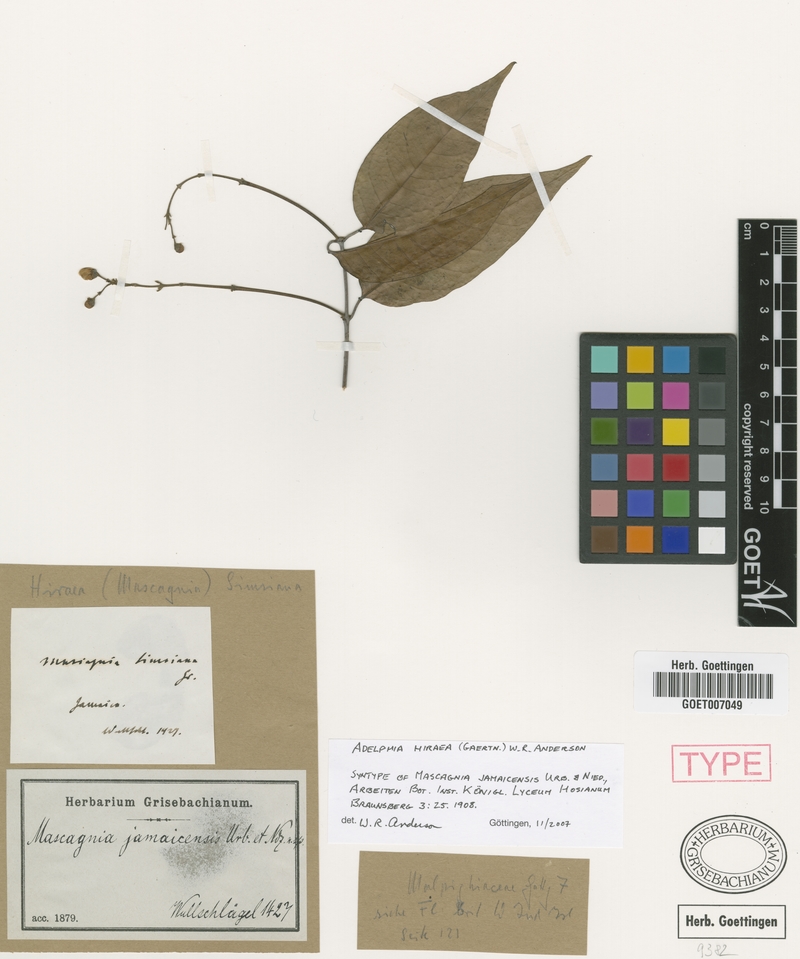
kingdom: Plantae
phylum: Tracheophyta
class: Magnoliopsida
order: Malpighiales
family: Malpighiaceae
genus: Adelphia
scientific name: Adelphia hiraea
